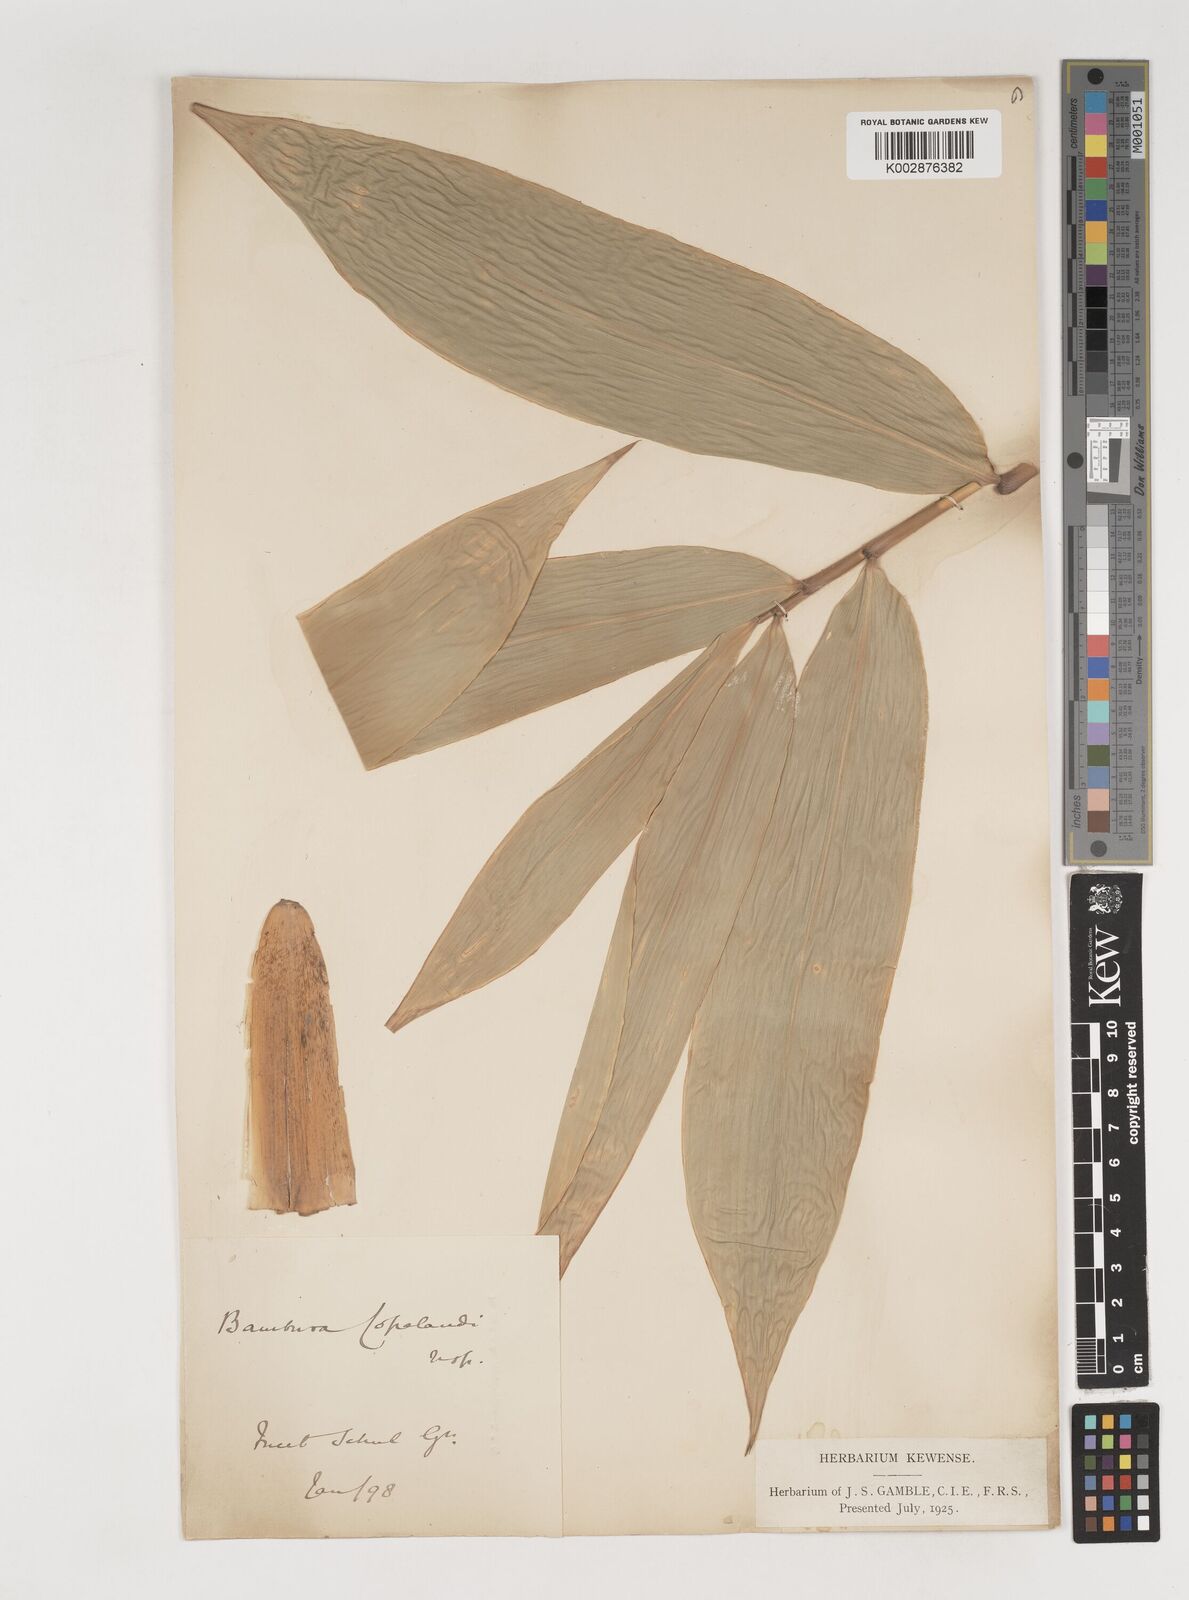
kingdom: Plantae
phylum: Tracheophyta
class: Liliopsida
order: Poales
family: Poaceae
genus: Bambusa
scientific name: Bambusa copelandii
